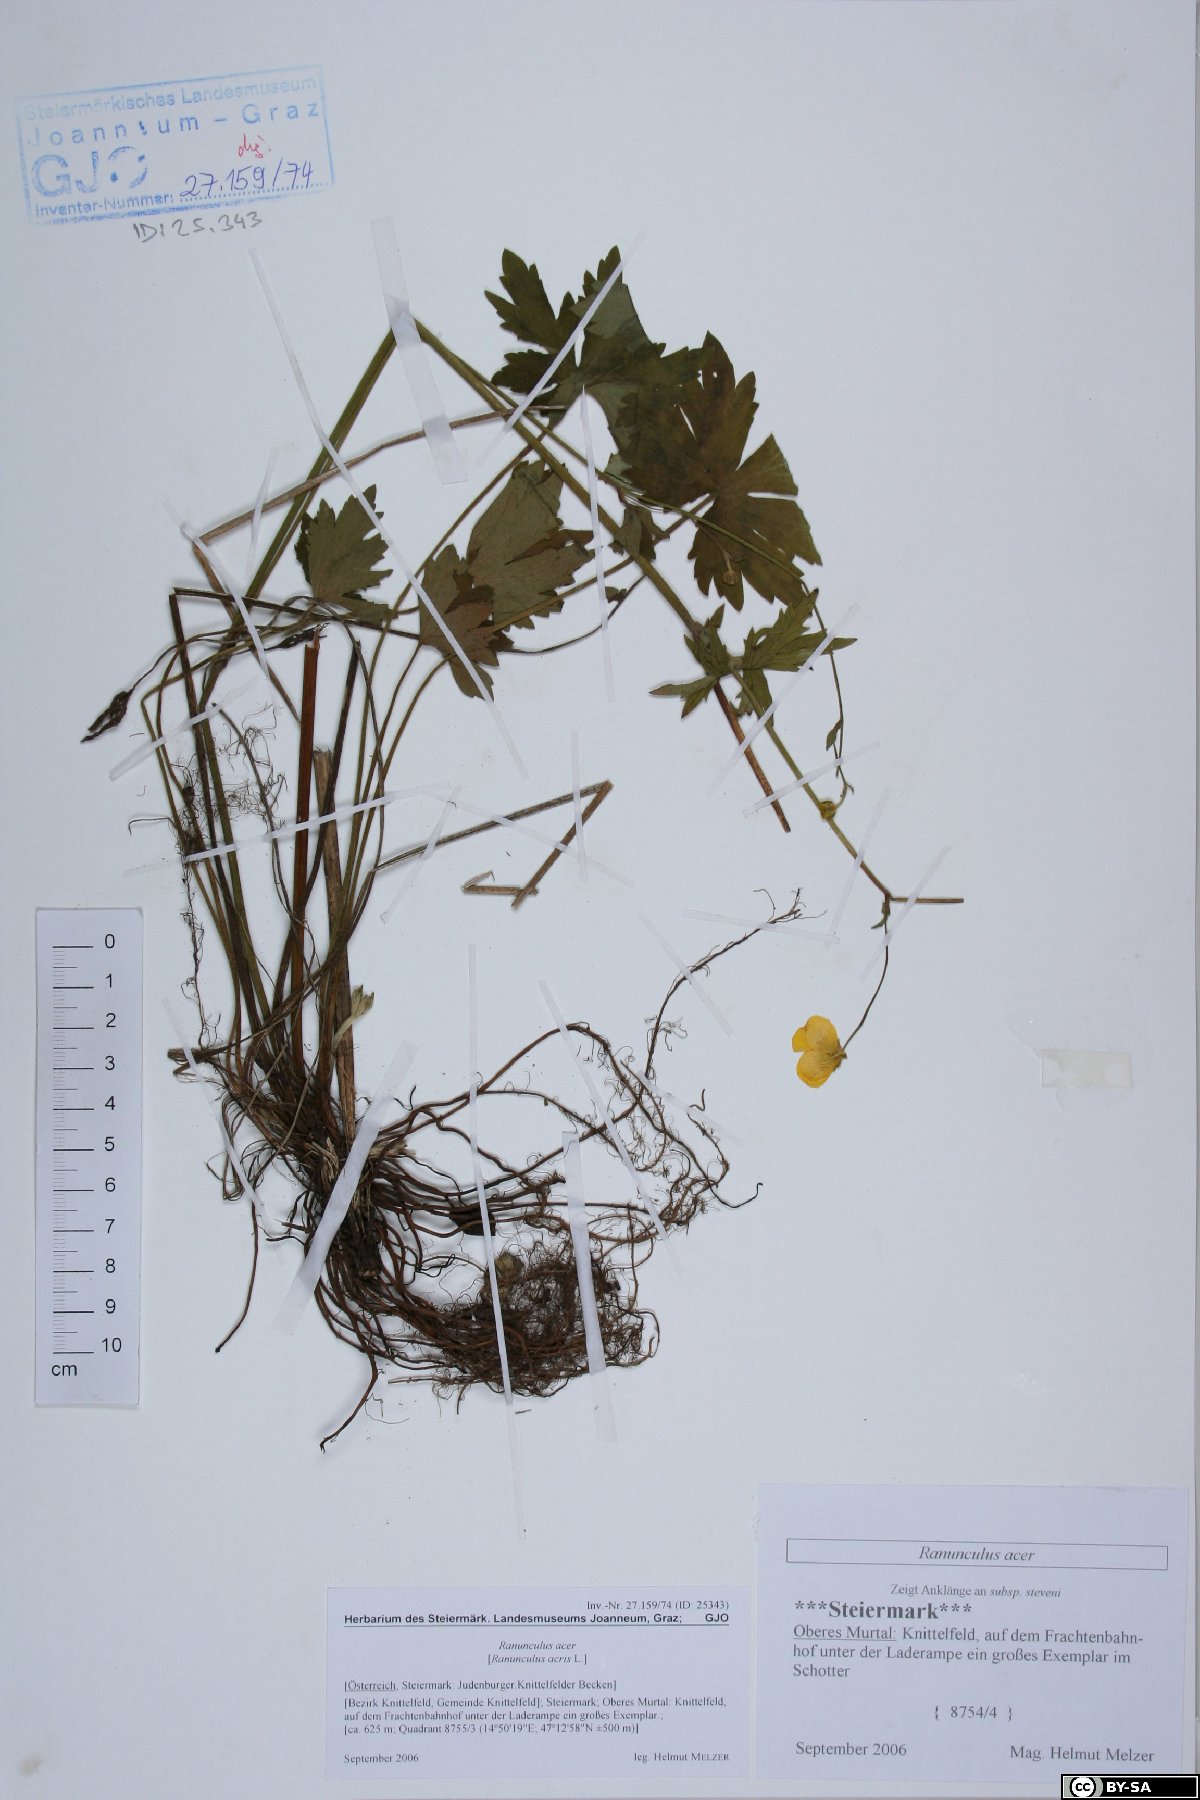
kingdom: Plantae
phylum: Tracheophyta
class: Magnoliopsida
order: Ranunculales
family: Ranunculaceae
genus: Ranunculus
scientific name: Ranunculus acris
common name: Meadow buttercup
